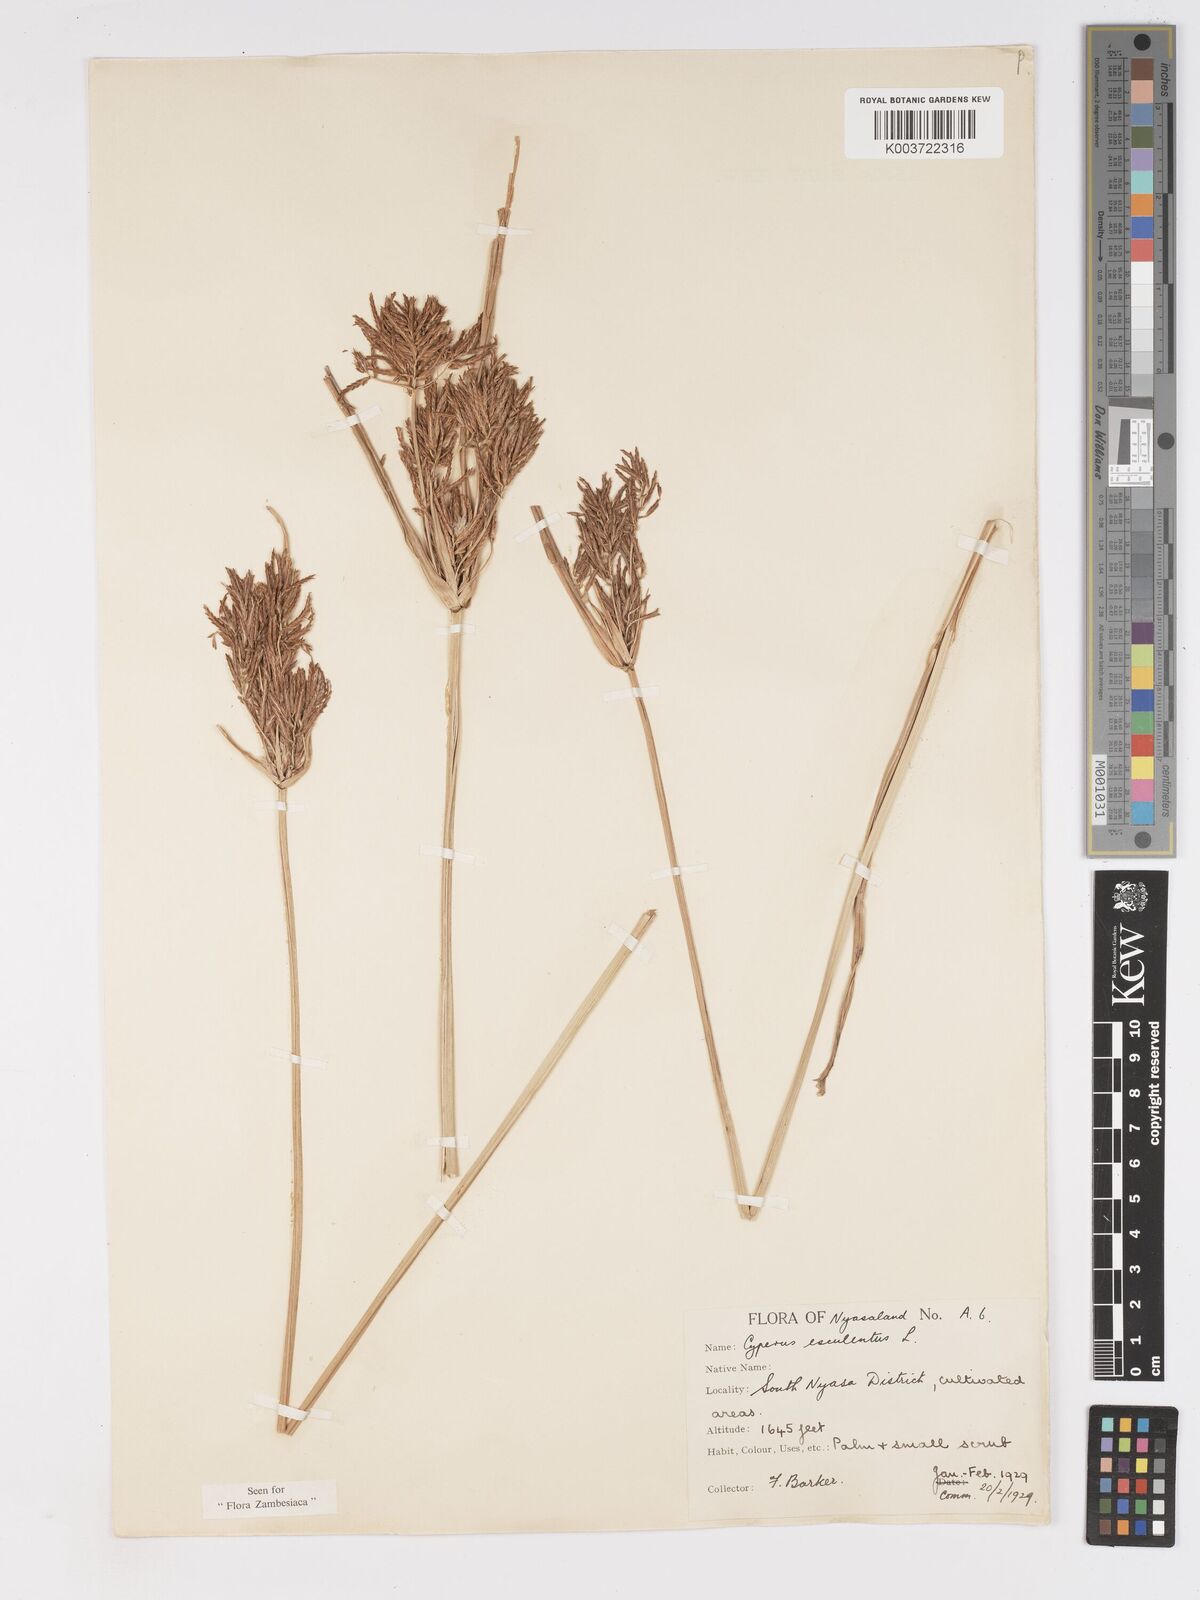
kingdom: Plantae
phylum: Tracheophyta
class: Liliopsida
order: Poales
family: Cyperaceae
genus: Cyperus
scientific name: Cyperus esculentus
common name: Yellow nutsedge
